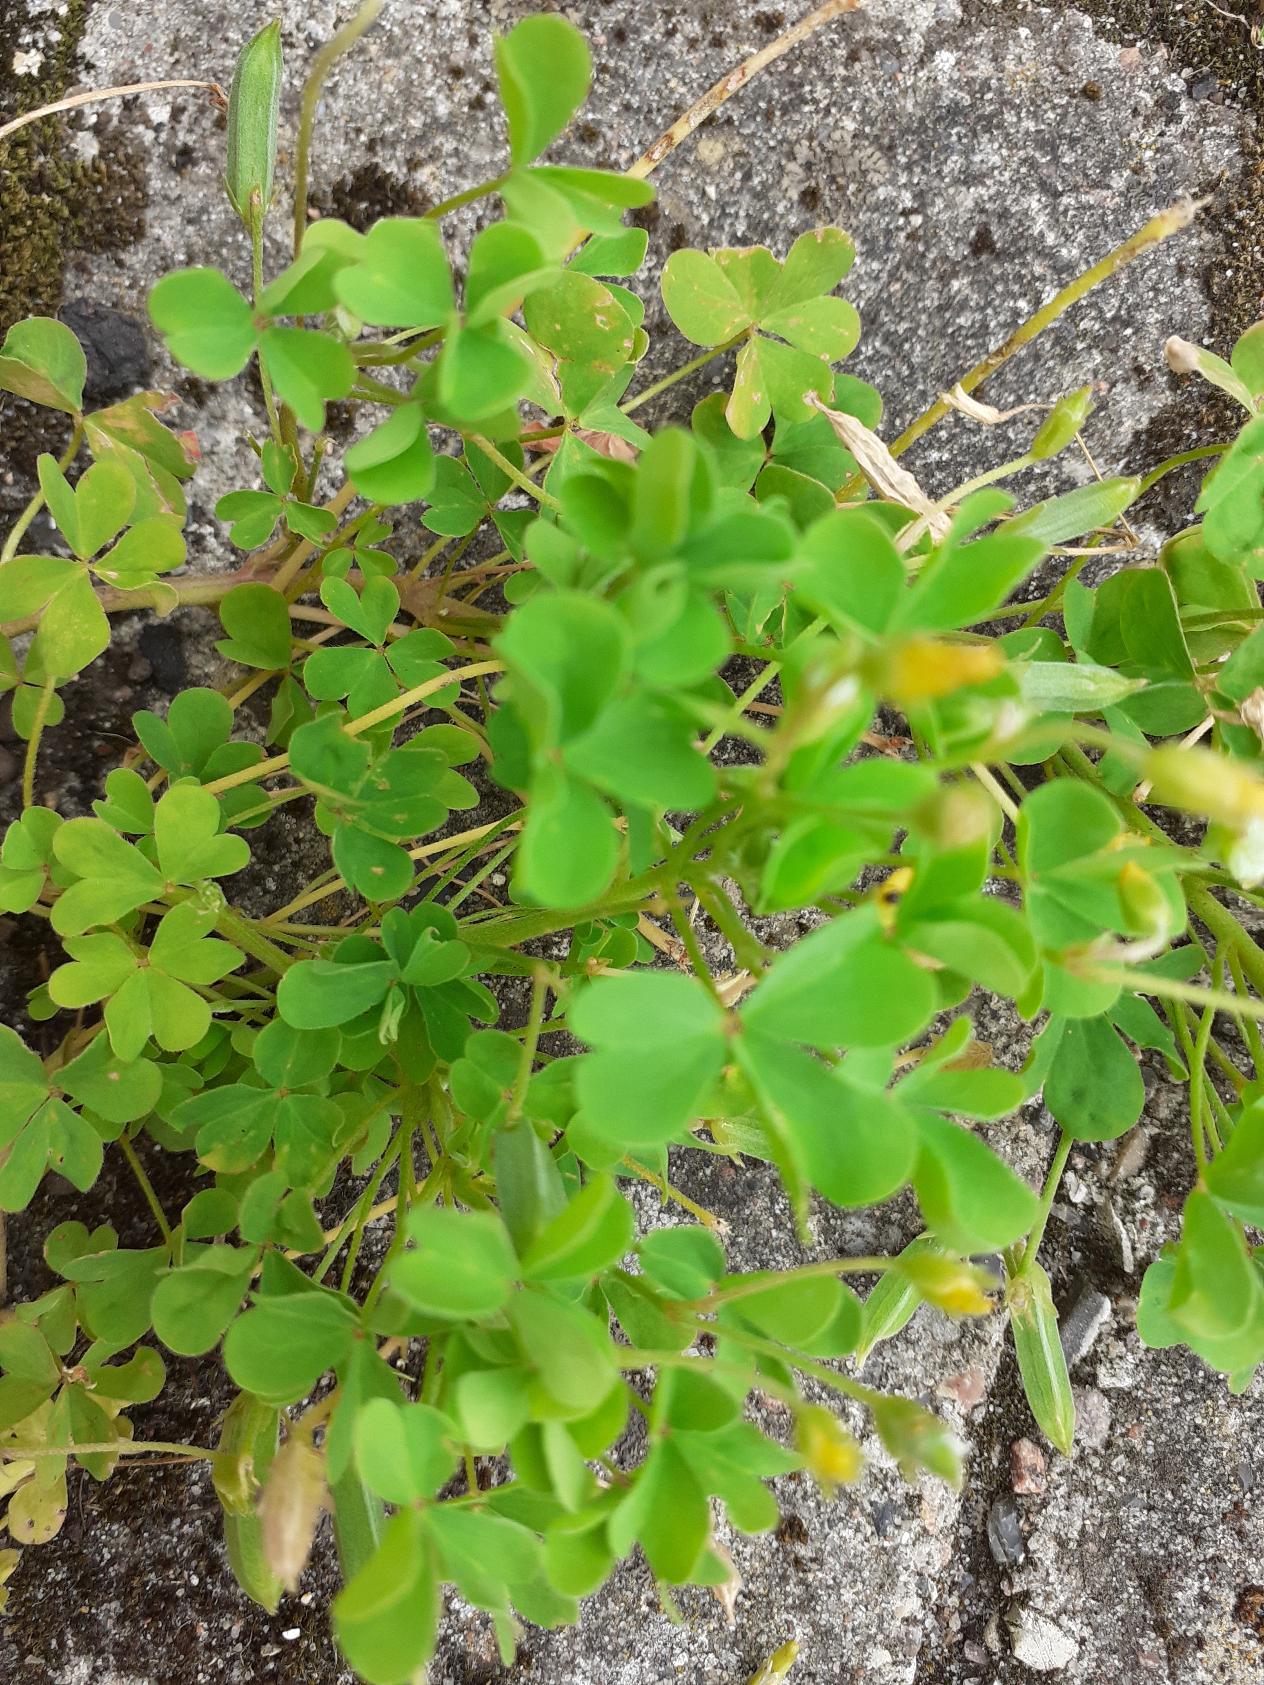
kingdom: Plantae
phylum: Tracheophyta
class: Magnoliopsida
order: Oxalidales
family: Oxalidaceae
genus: Oxalis
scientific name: Oxalis stricta
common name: Rank surkløver
